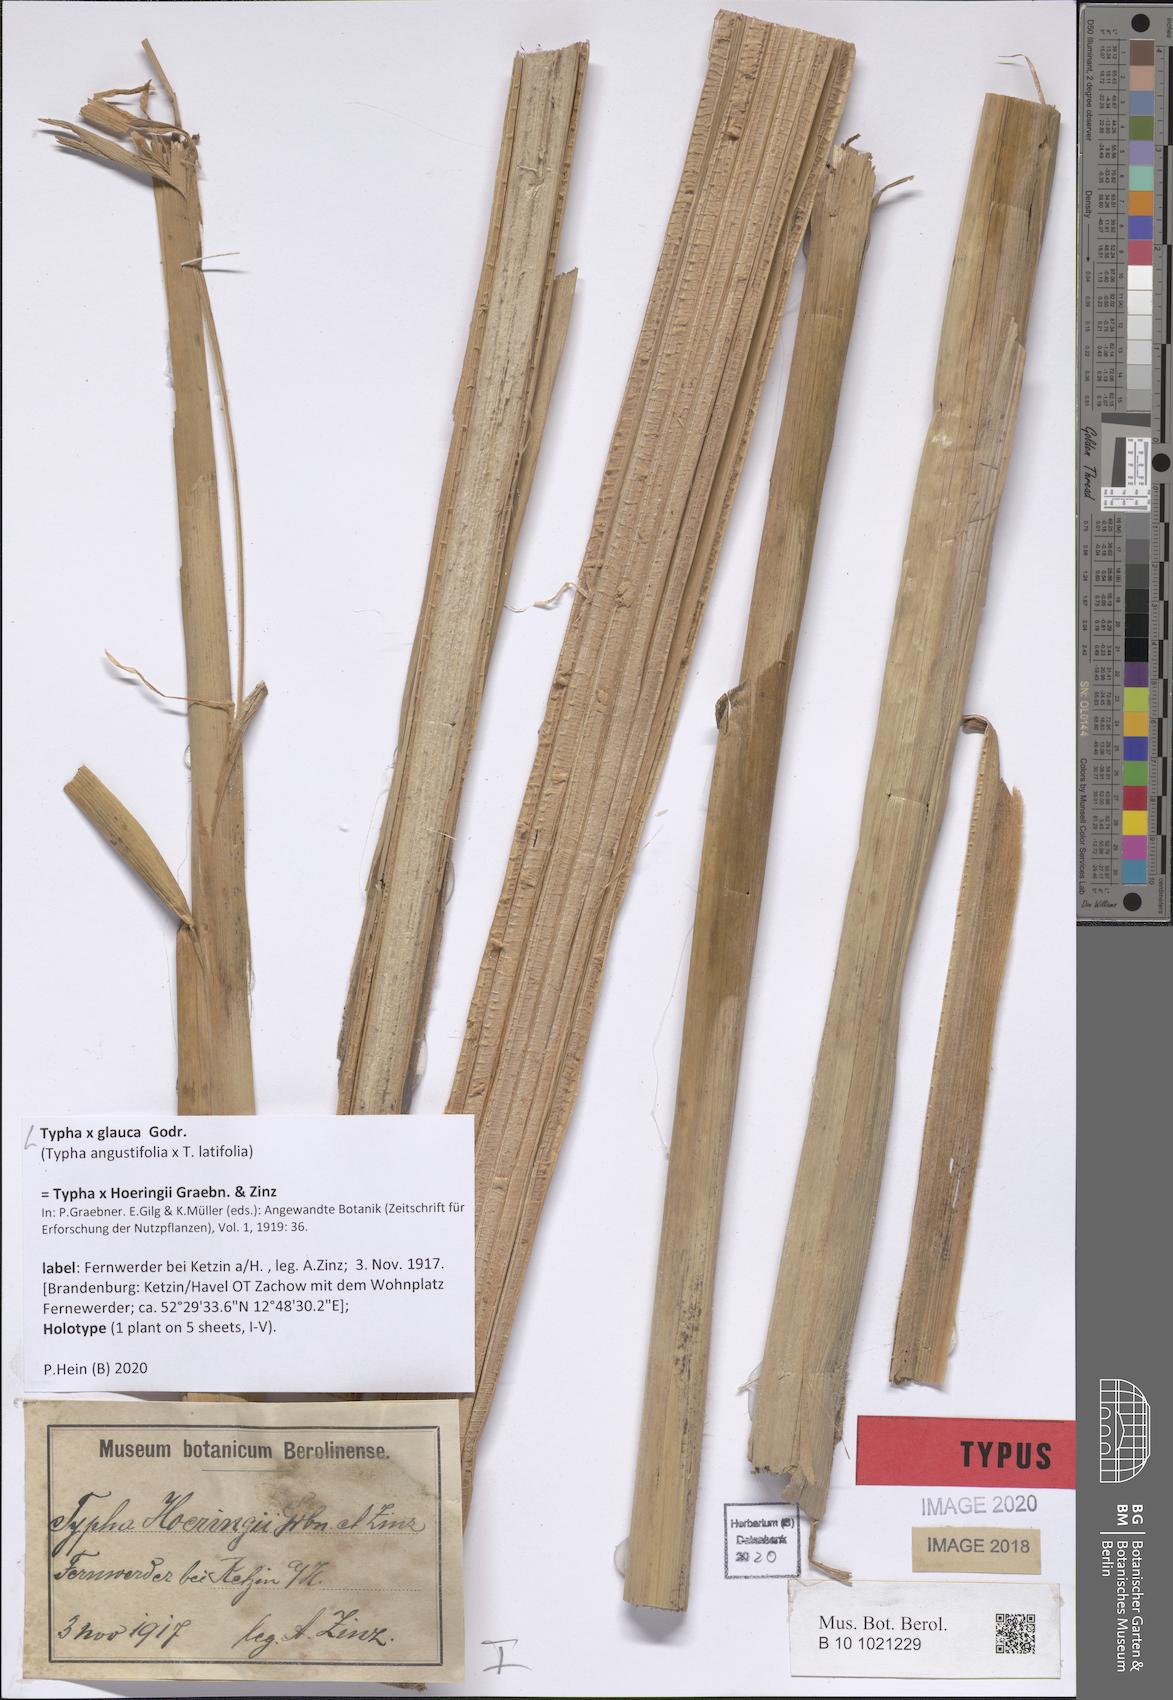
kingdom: Plantae
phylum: Tracheophyta
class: Liliopsida
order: Poales
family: Typhaceae
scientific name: Typhaceae
